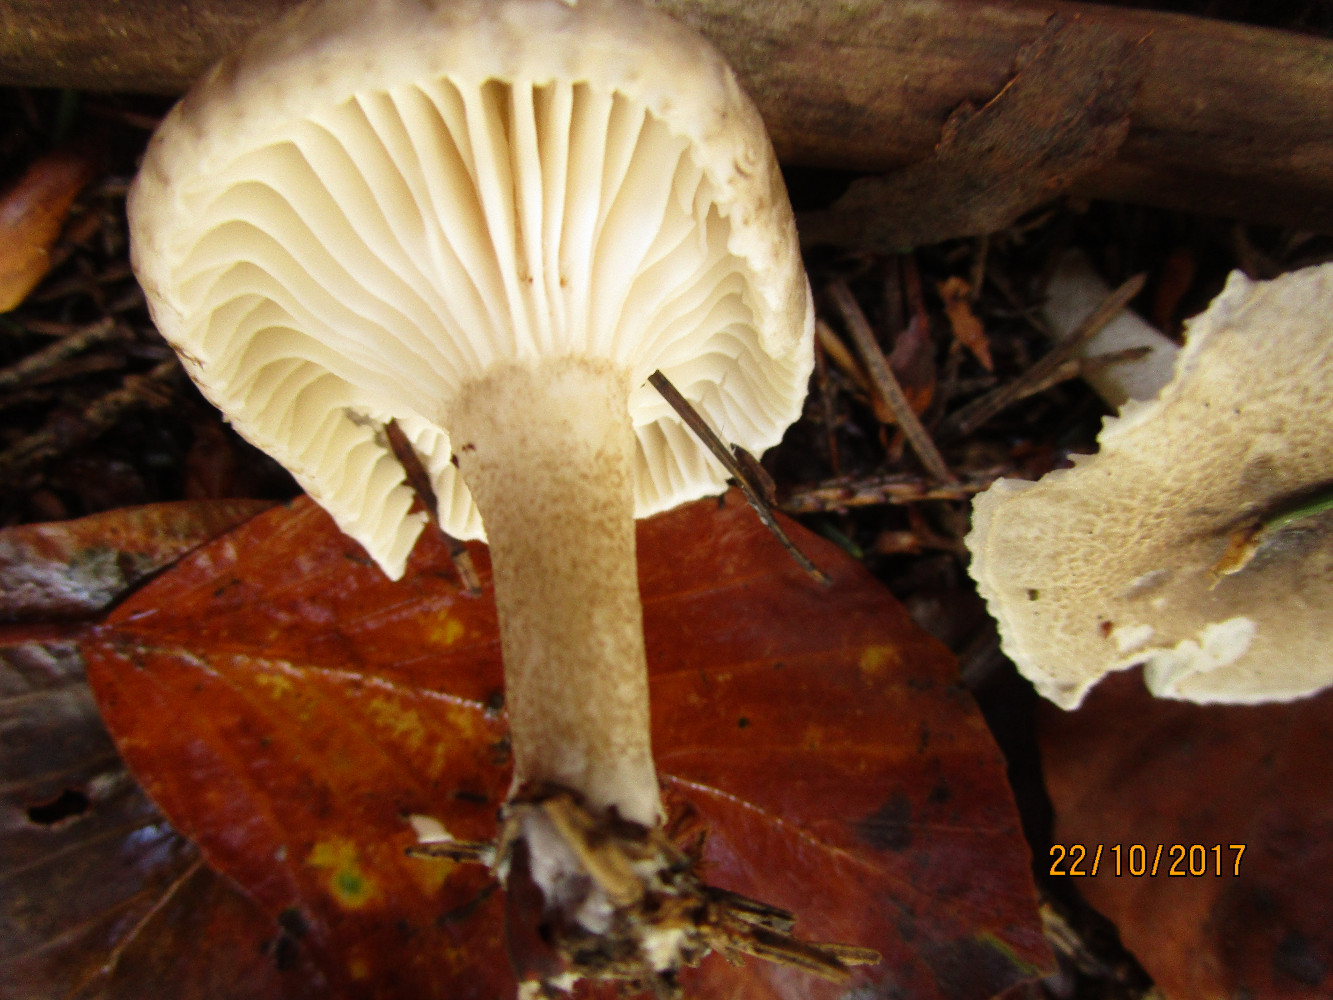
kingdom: Fungi
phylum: Basidiomycota
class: Agaricomycetes
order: Agaricales
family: Hygrophoraceae
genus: Hygrophorus
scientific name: Hygrophorus pustulatus
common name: mørkprikket sneglehat
